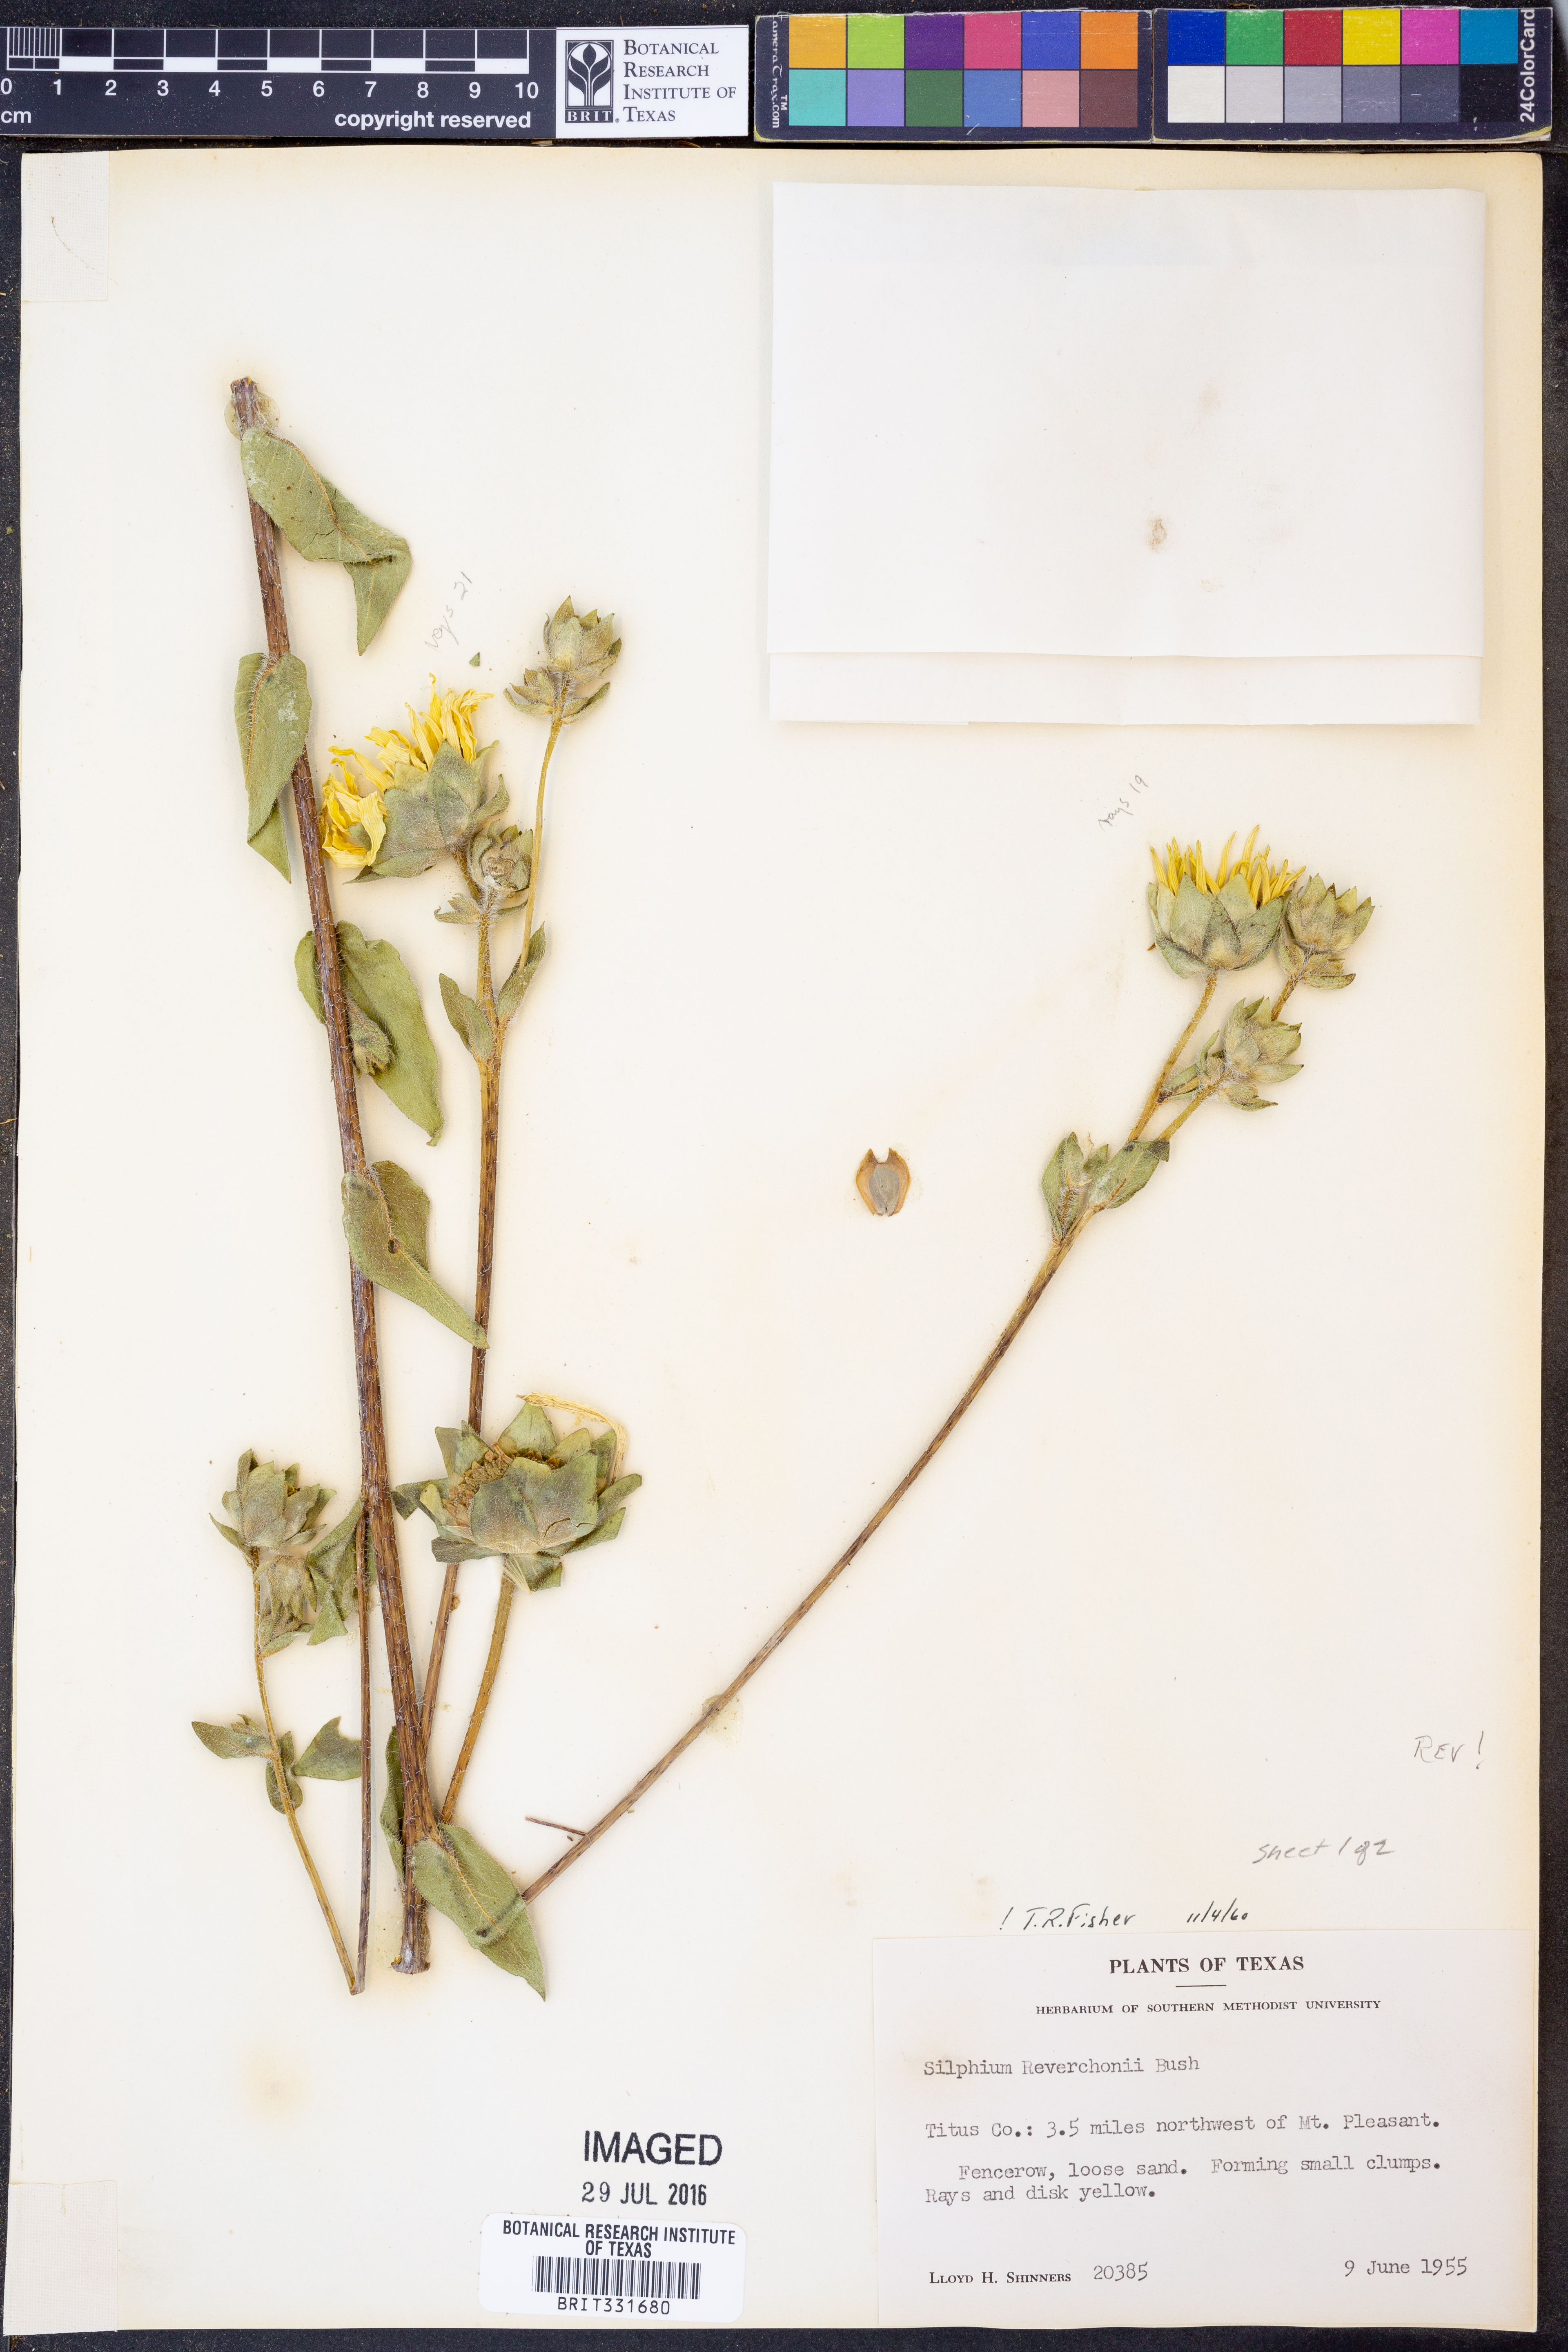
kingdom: Plantae
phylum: Tracheophyta
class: Magnoliopsida
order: Asterales
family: Asteraceae
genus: Silphium
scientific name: Silphium radula
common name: Roughleaf rosinweed
